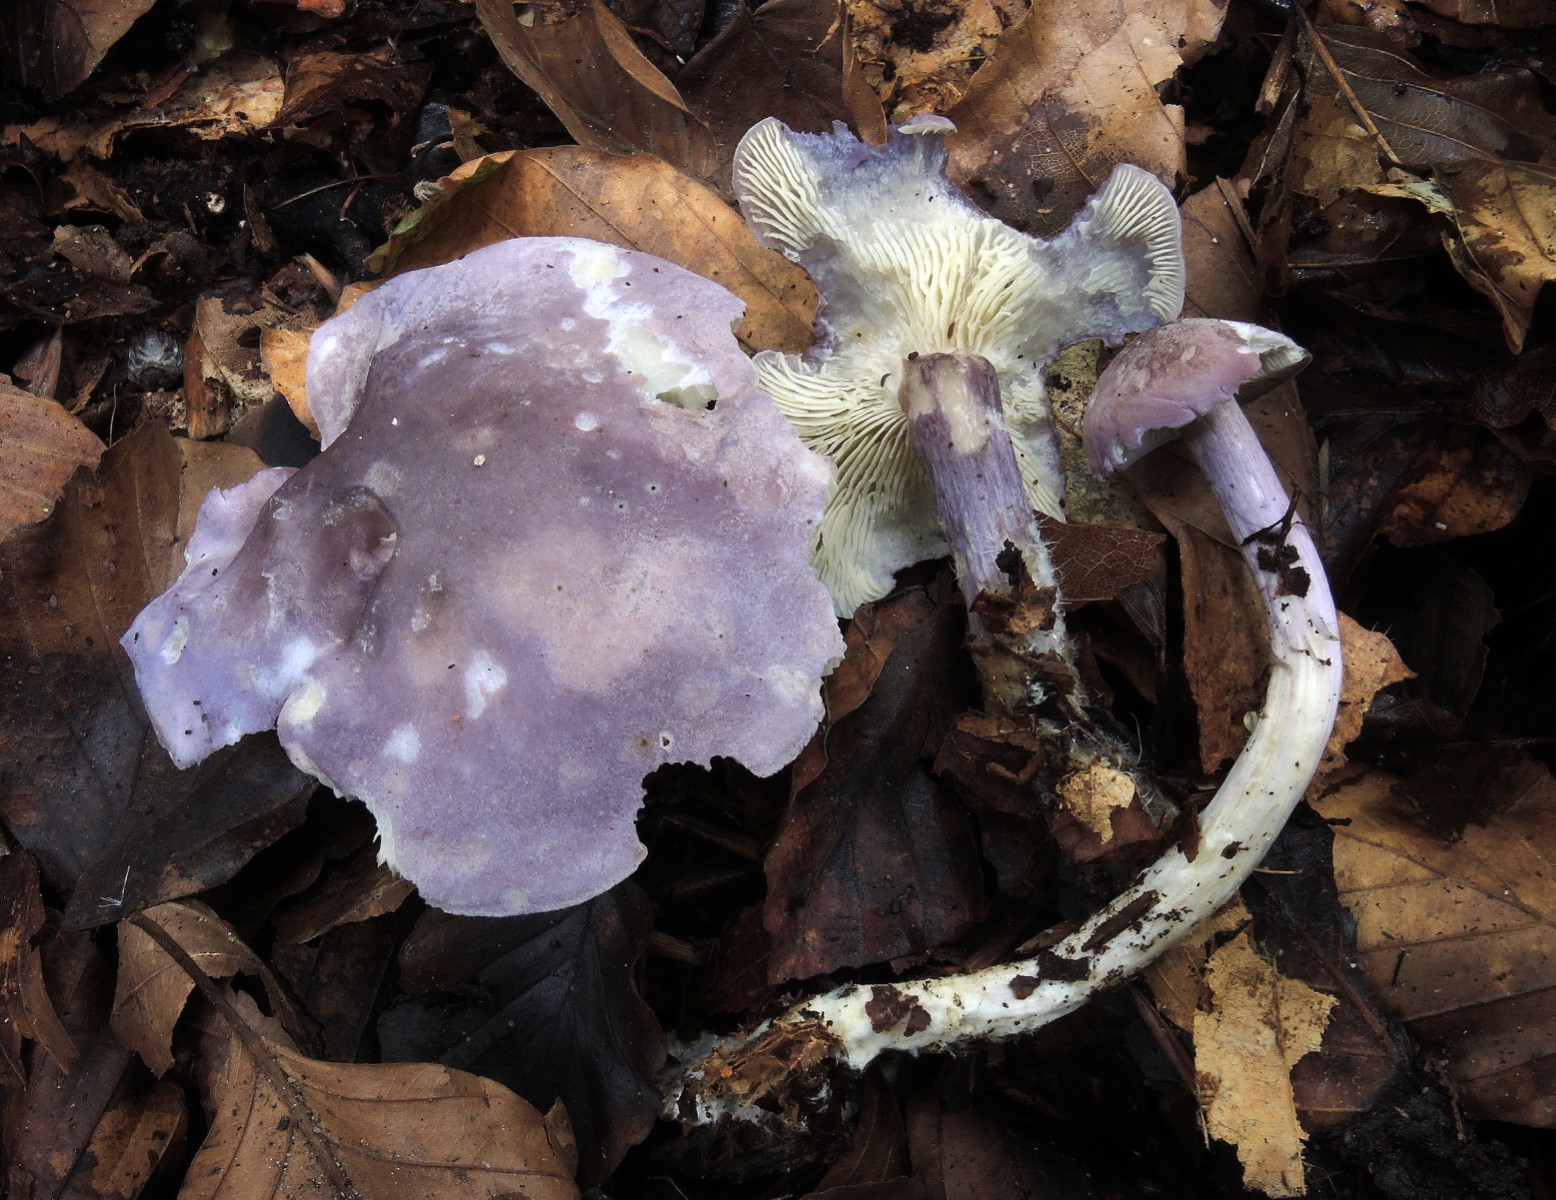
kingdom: Fungi
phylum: Basidiomycota
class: Agaricomycetes
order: Agaricales
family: Lyophyllaceae
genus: Calocybe
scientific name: Calocybe ionides
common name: violblå fagerhat
